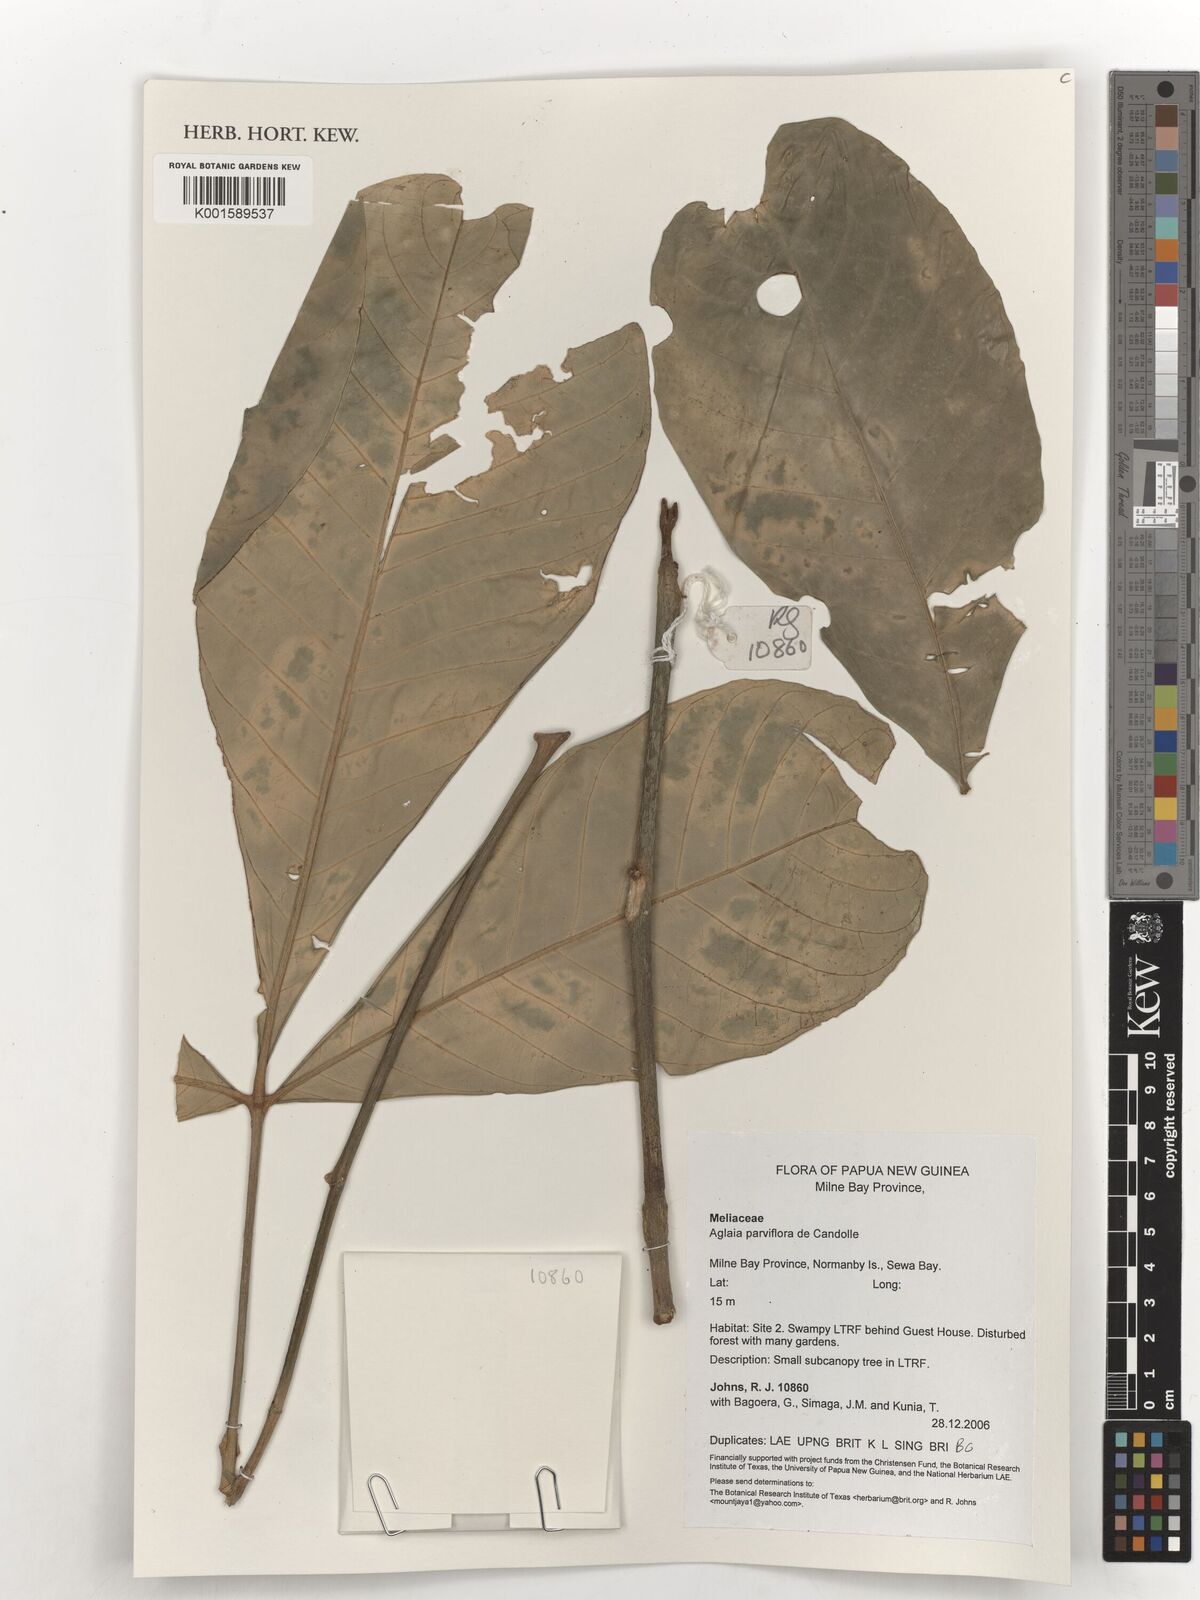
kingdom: Plantae
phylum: Tracheophyta
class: Magnoliopsida
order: Sapindales
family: Meliaceae
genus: Aglaia
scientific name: Aglaia parviflora
